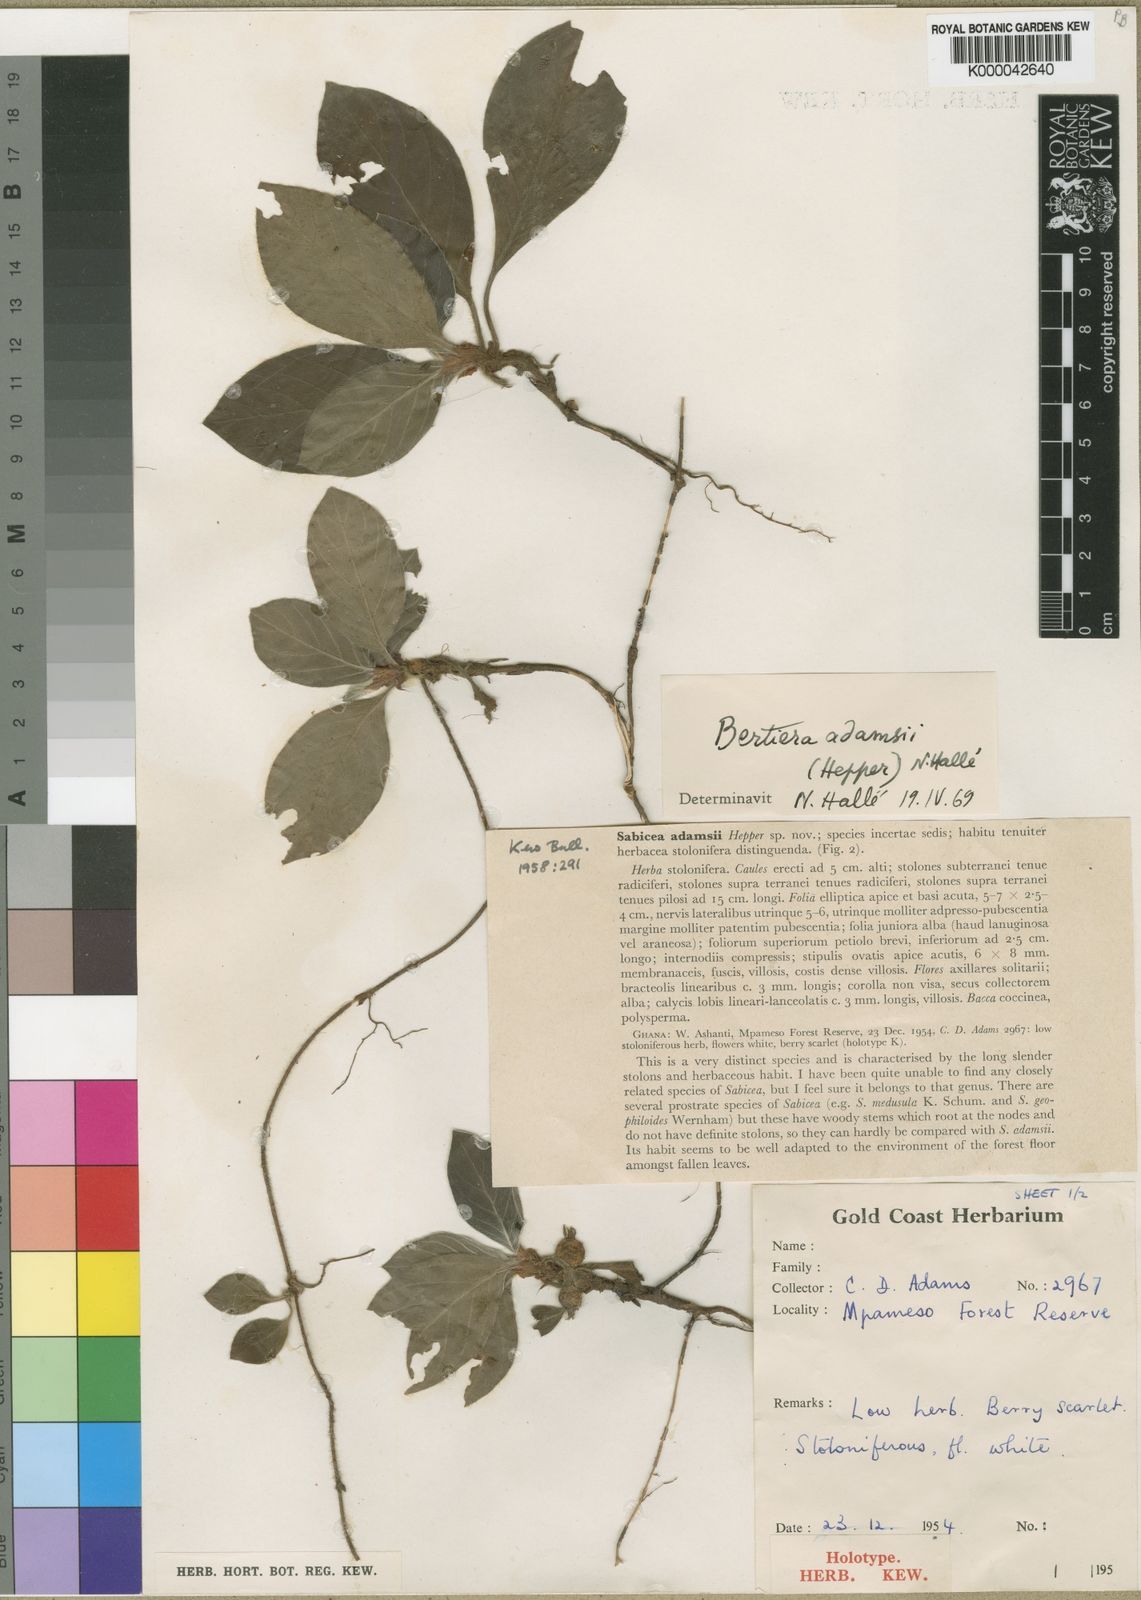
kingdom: Plantae
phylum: Tracheophyta
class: Magnoliopsida
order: Gentianales
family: Rubiaceae
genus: Bertiera
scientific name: Bertiera
